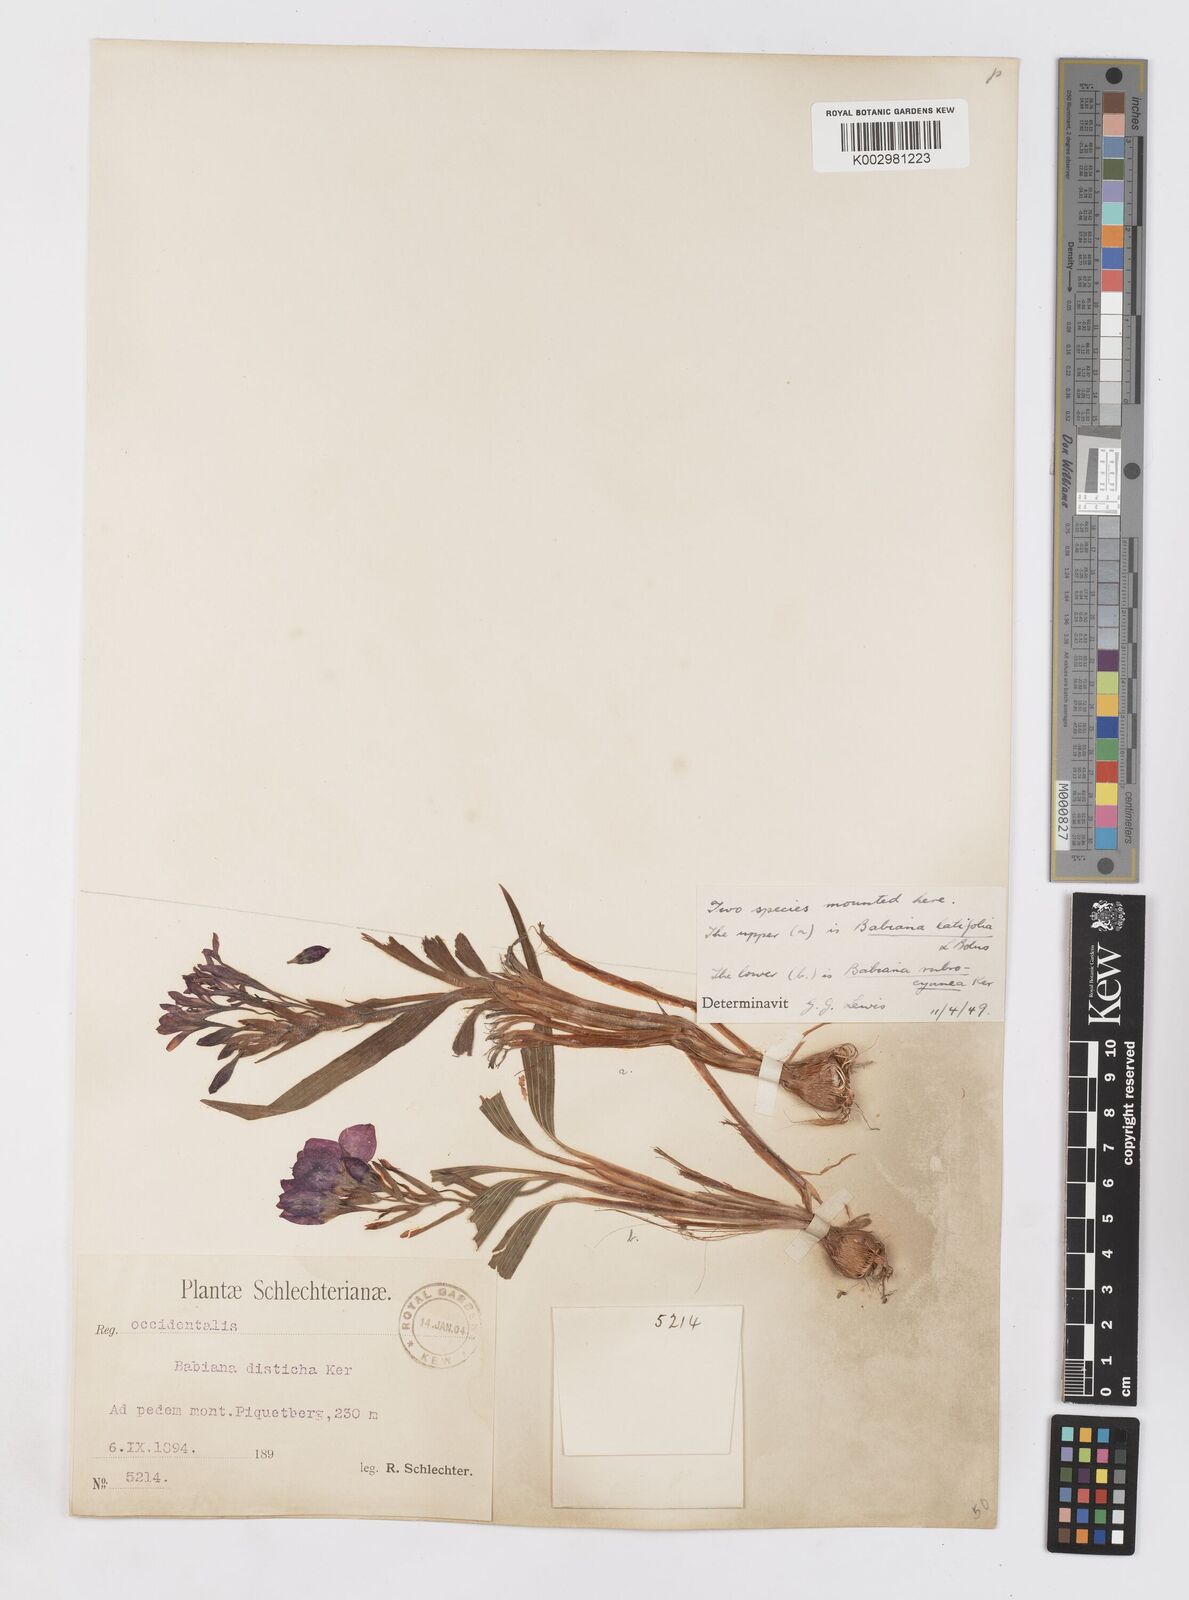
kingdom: Plantae
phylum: Tracheophyta
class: Liliopsida
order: Asparagales
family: Iridaceae
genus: Babiana
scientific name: Babiana rubrocyanea
